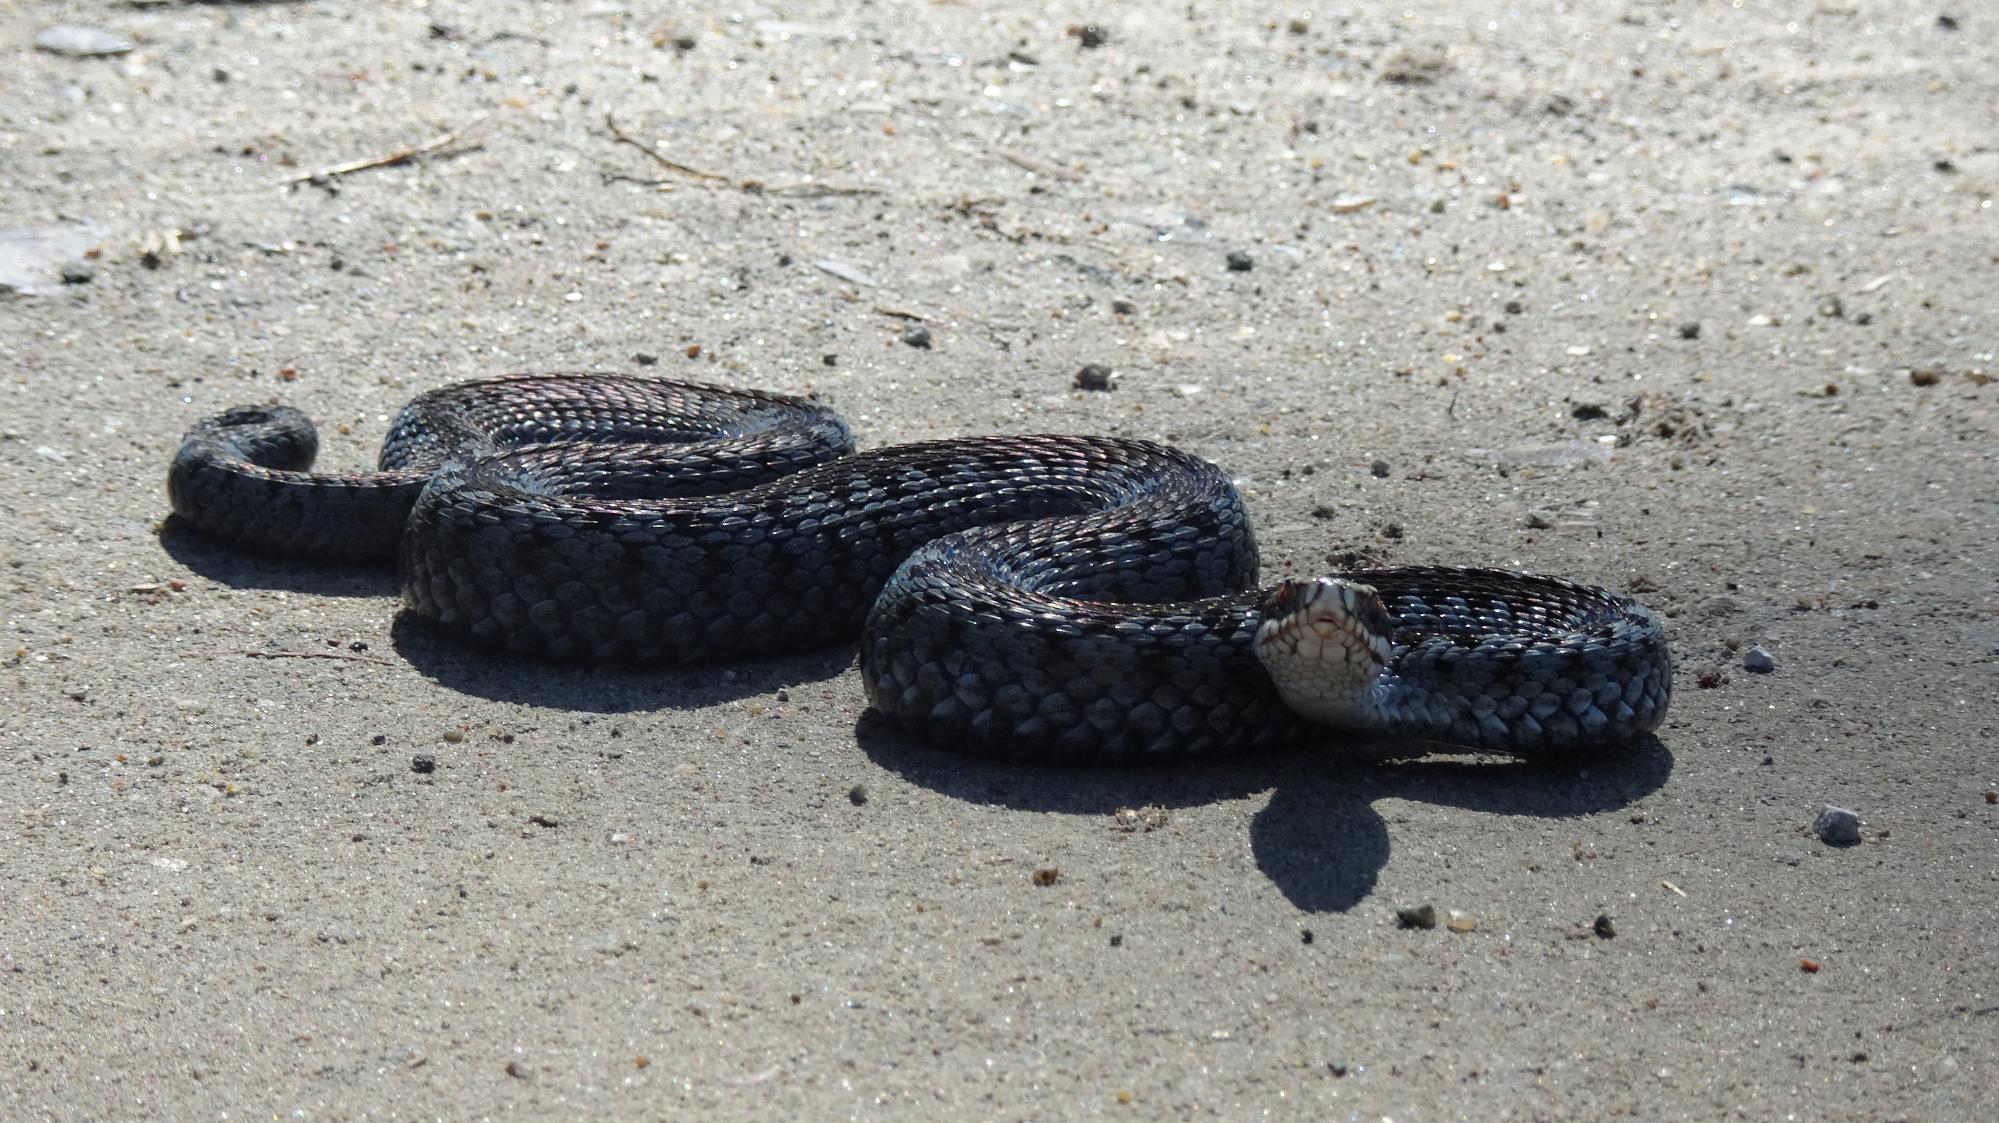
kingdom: Animalia
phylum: Chordata
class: Squamata
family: Viperidae
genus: Vipera
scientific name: Vipera berus
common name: Hugorm
